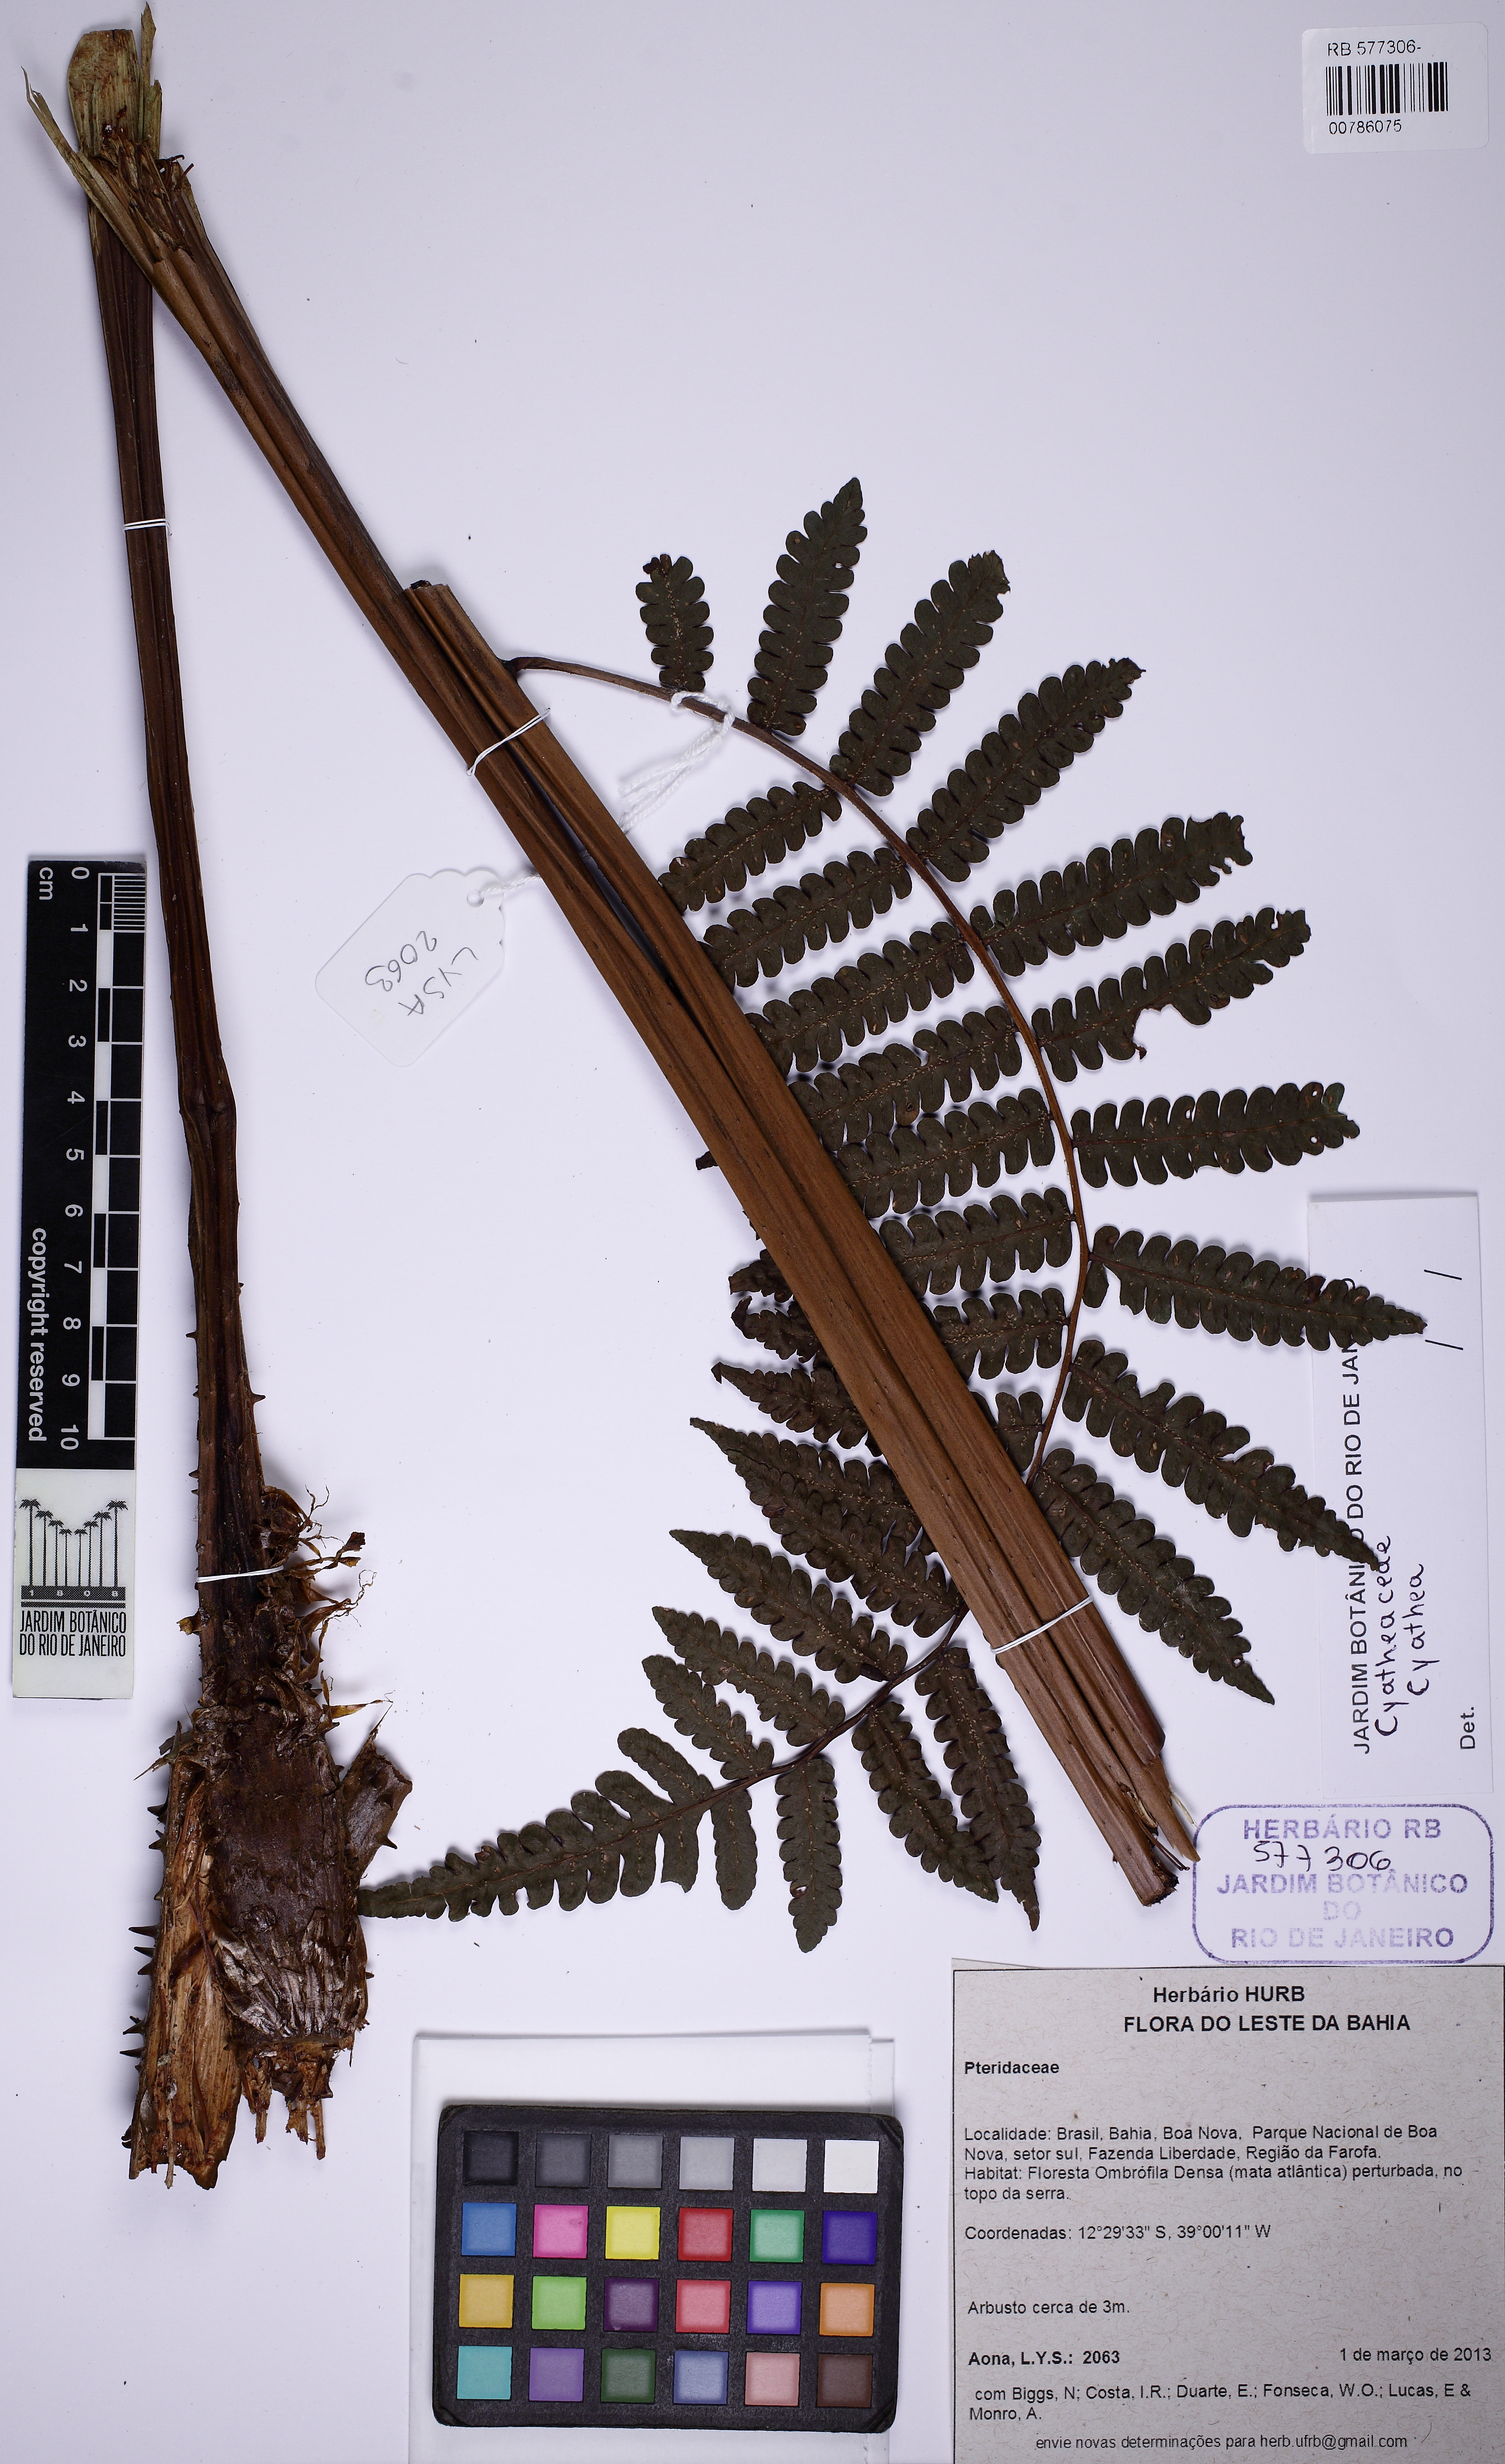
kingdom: Plantae
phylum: Tracheophyta
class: Polypodiopsida
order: Cyatheales
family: Cyatheaceae
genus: Cyathea
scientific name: Cyathea
